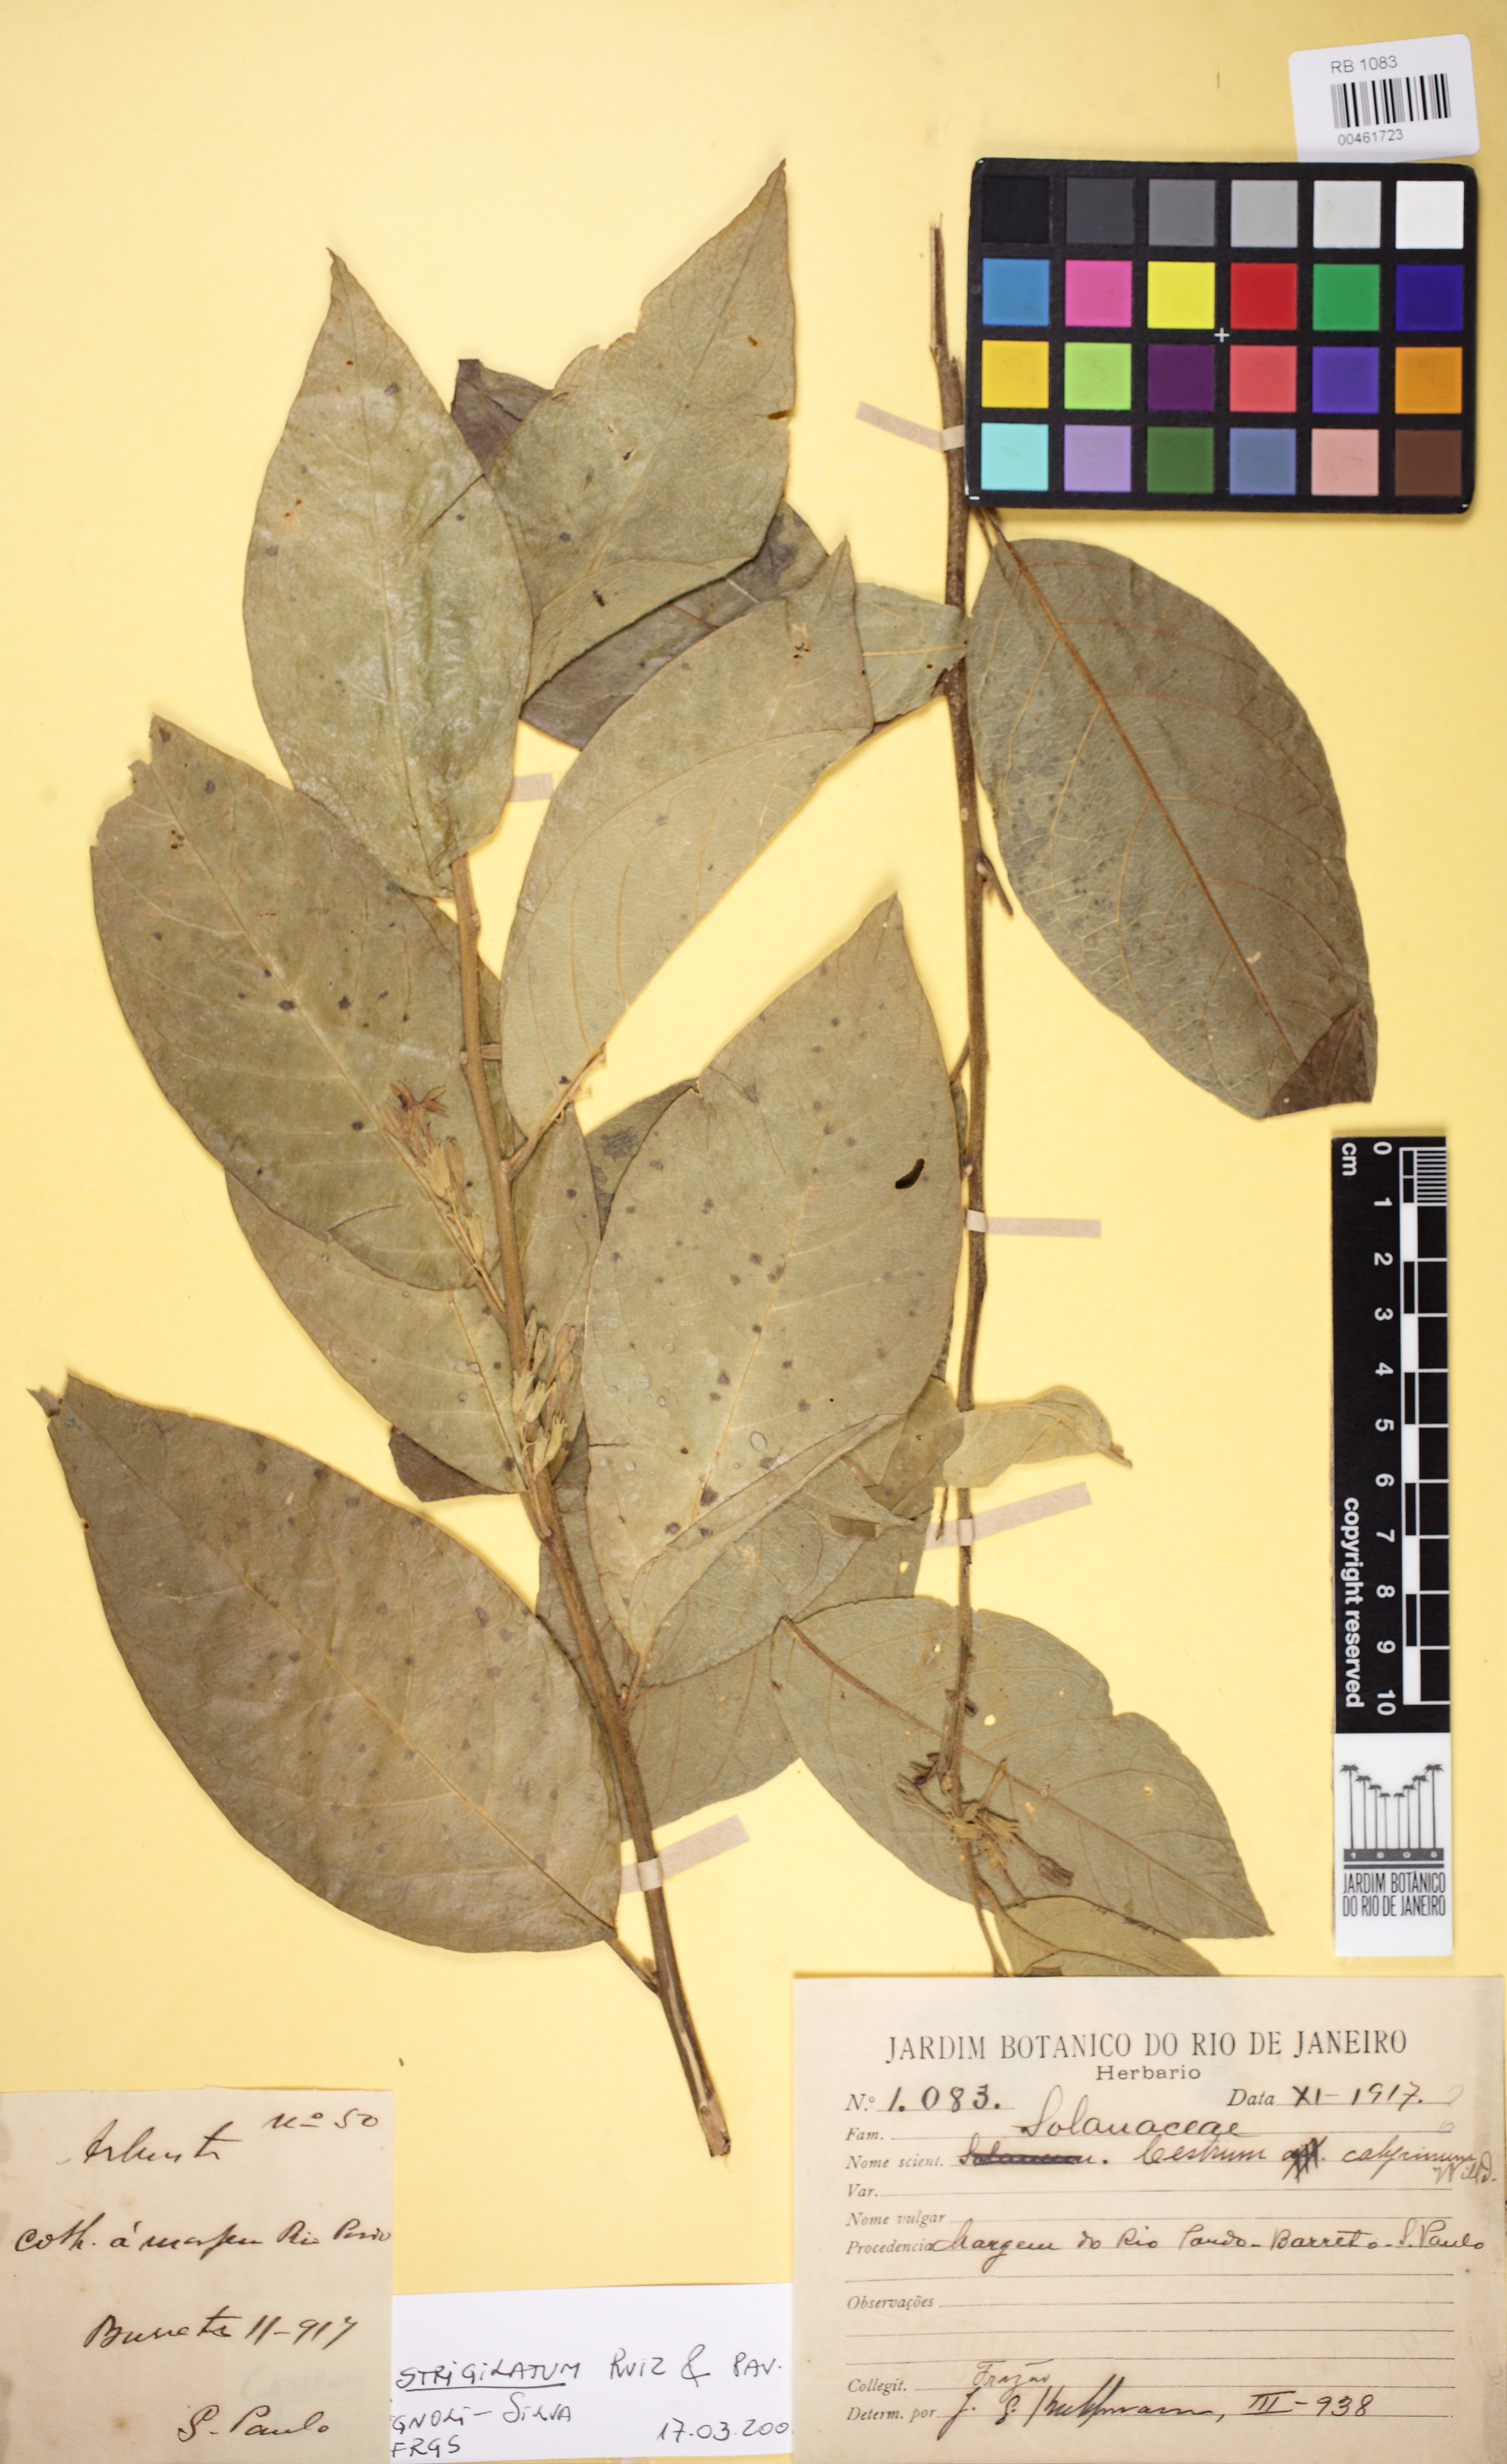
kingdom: Plantae
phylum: Tracheophyta
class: Magnoliopsida
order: Solanales
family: Solanaceae
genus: Cestrum
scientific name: Cestrum strigillatum
